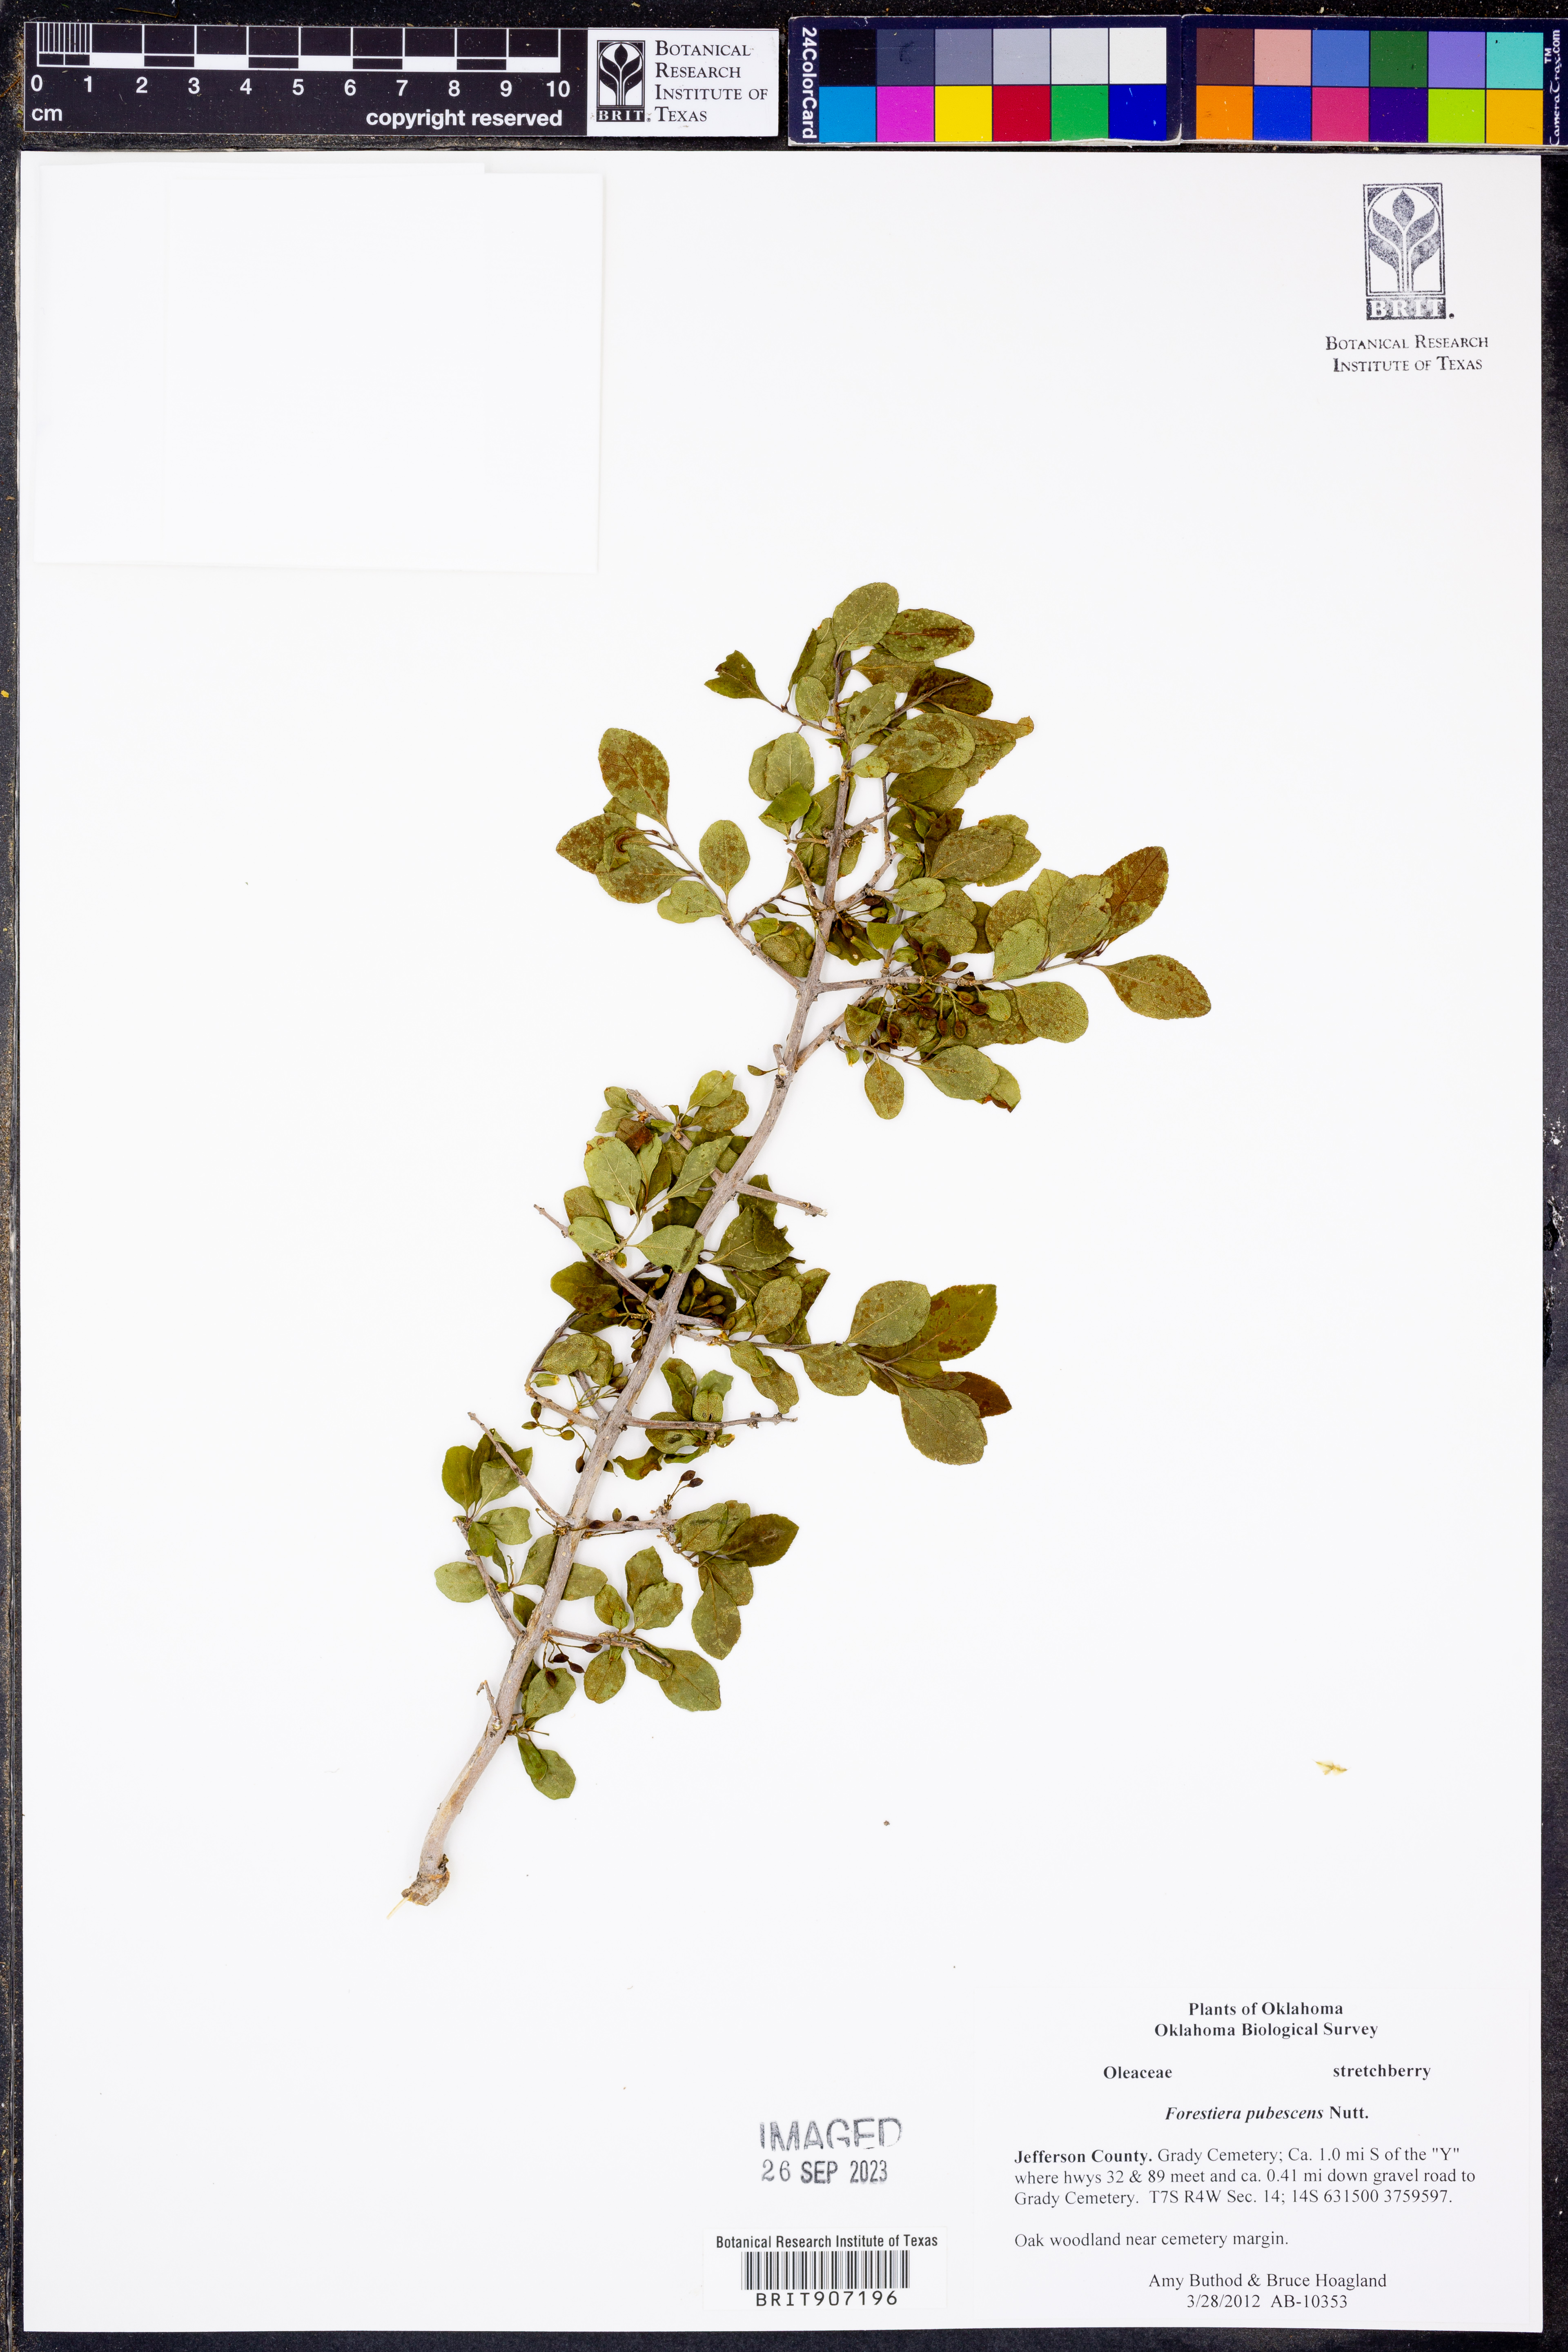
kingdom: Plantae
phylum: Tracheophyta
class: Magnoliopsida
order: Lamiales
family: Oleaceae
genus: Forestiera
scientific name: Forestiera pubescens
